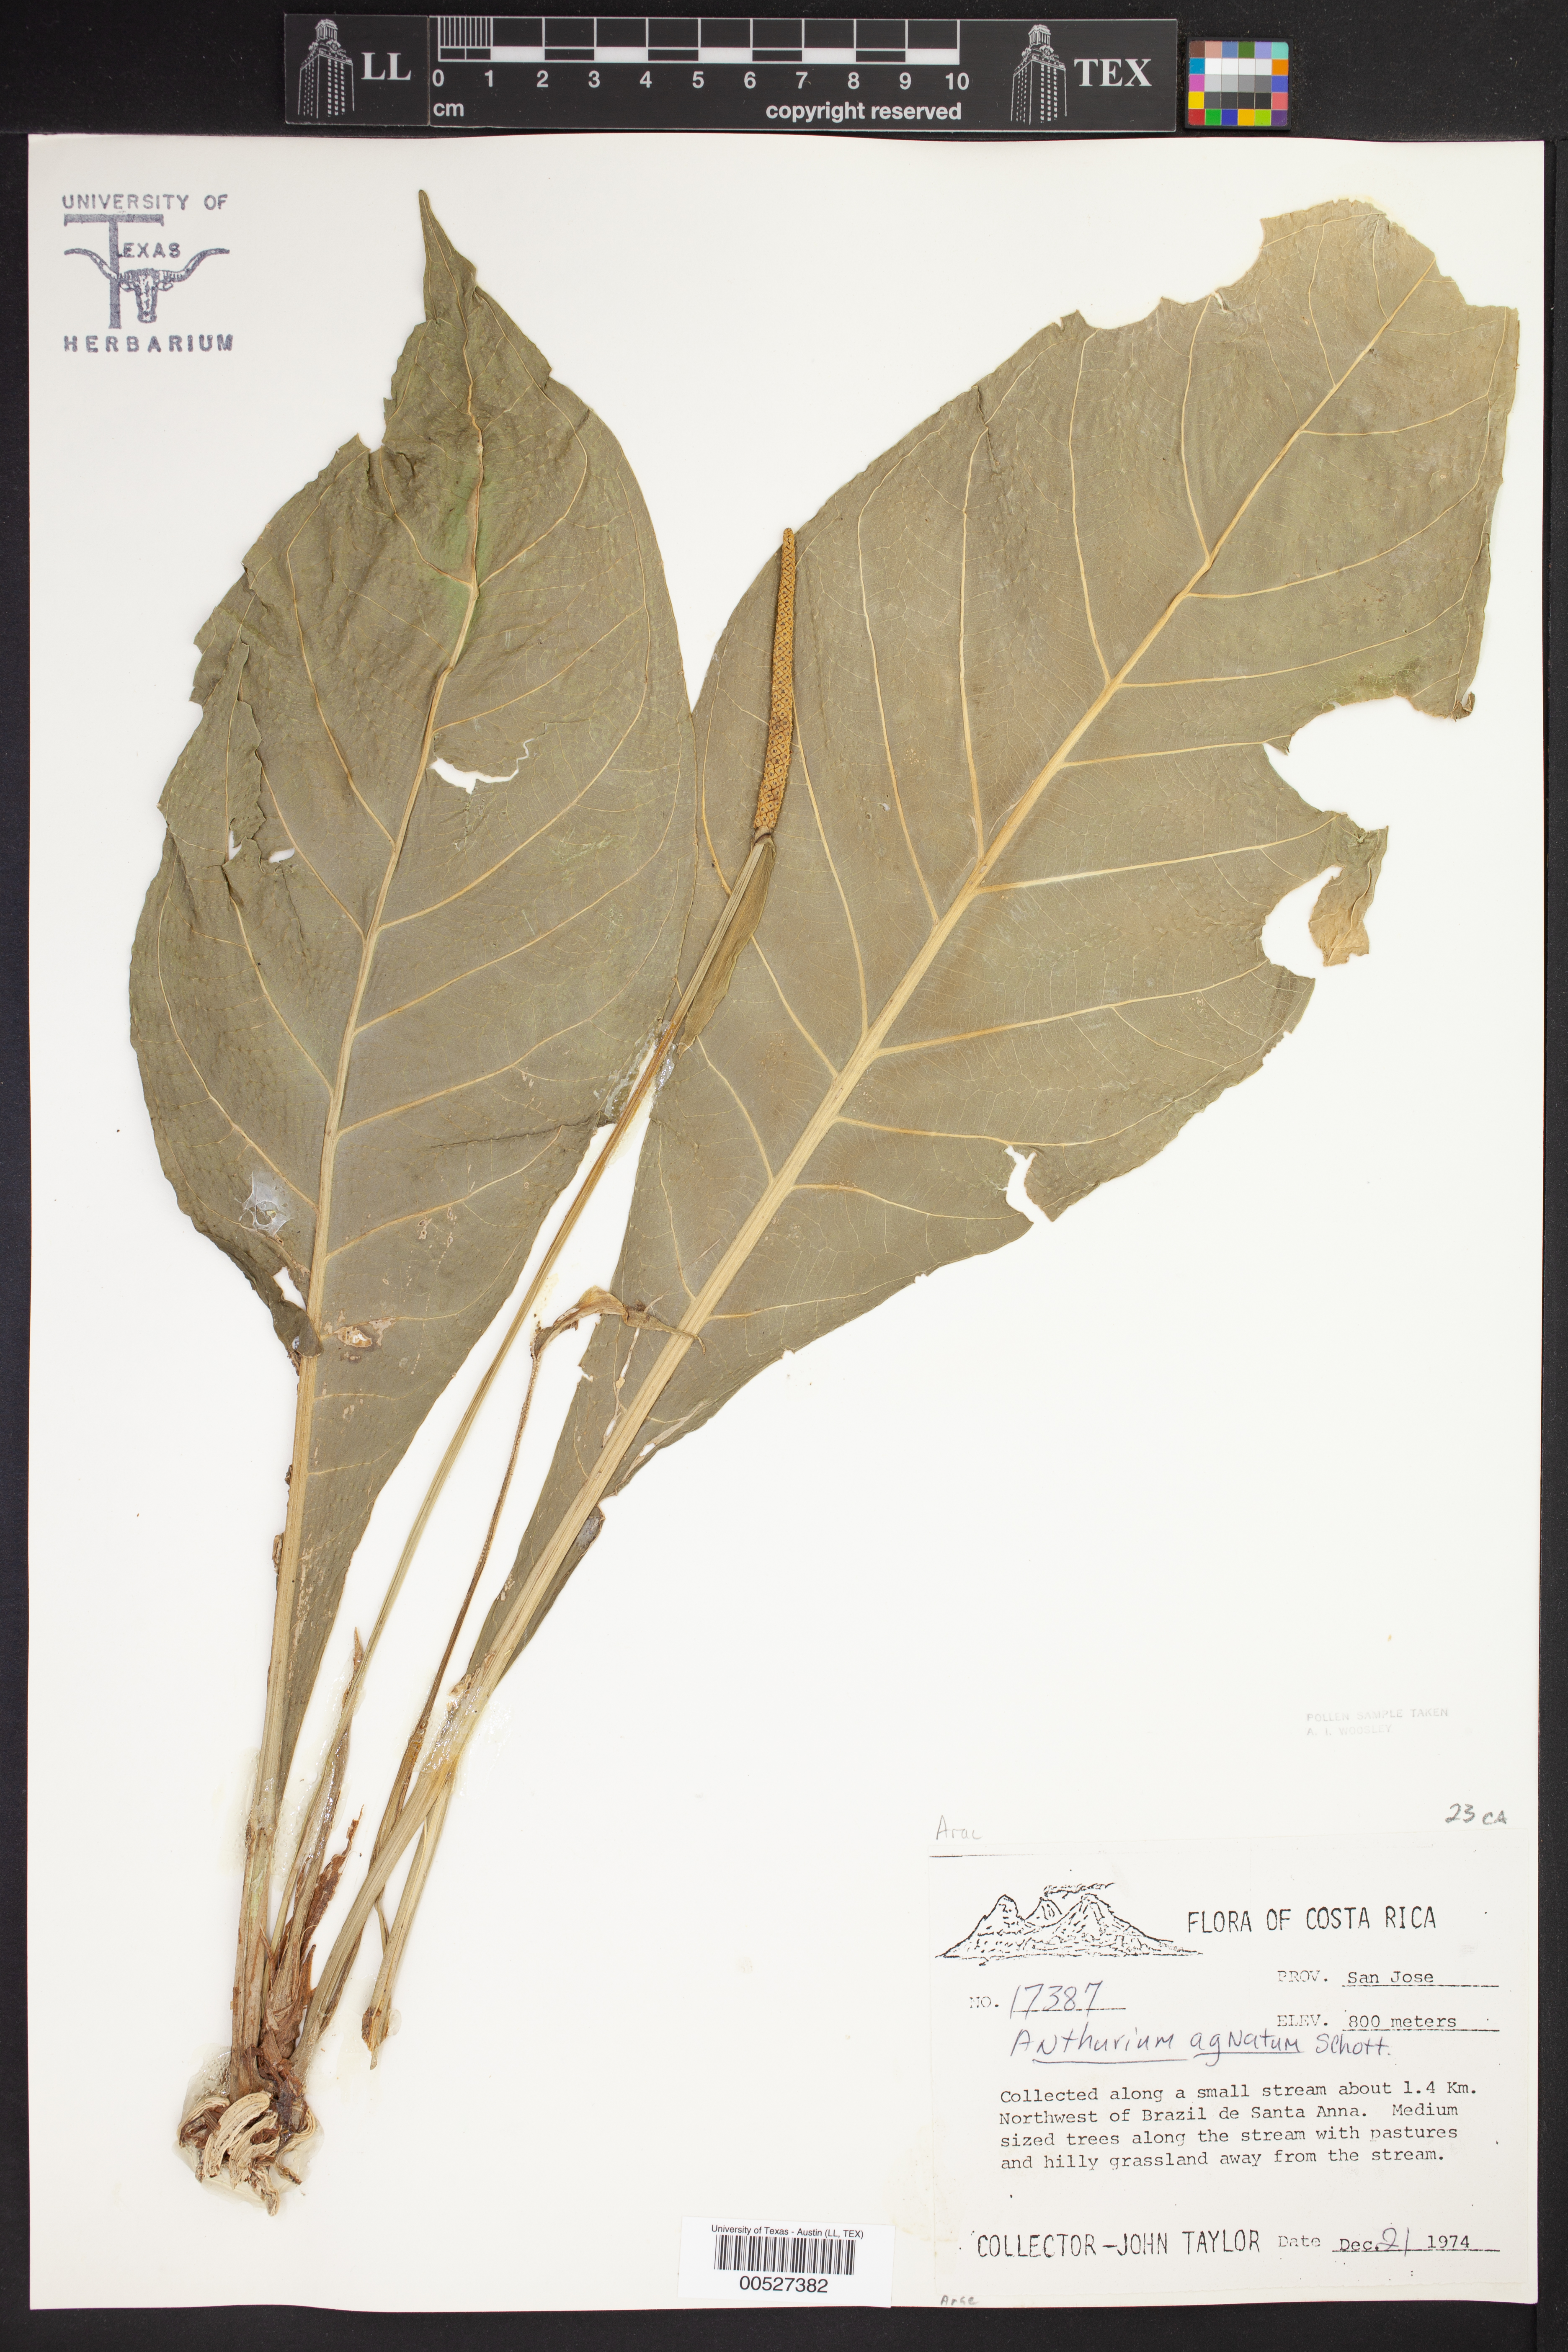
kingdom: Plantae
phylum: Tracheophyta
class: Liliopsida
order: Alismatales
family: Araceae
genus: Anthurium
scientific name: Anthurium agnatum
